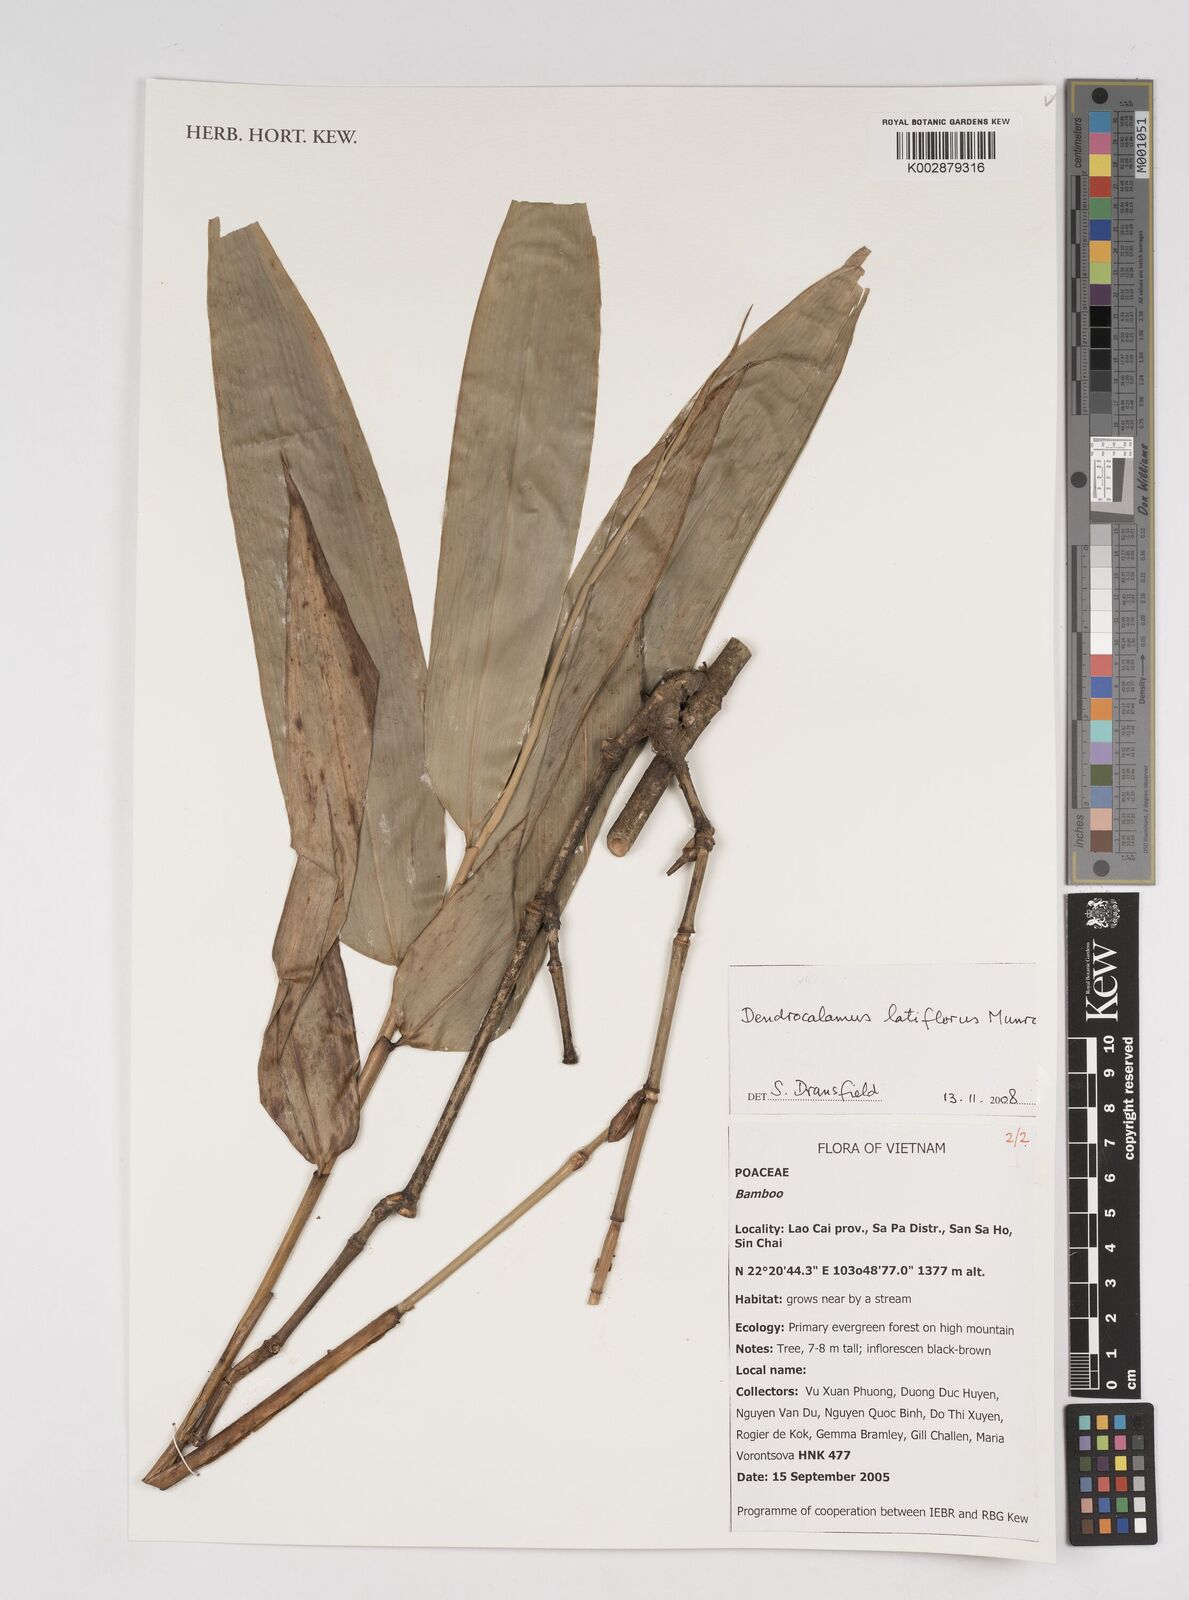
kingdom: Plantae
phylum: Tracheophyta
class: Liliopsida
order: Poales
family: Poaceae
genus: Dendrocalamus
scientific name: Dendrocalamus latiflorus
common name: Giant bamboo
